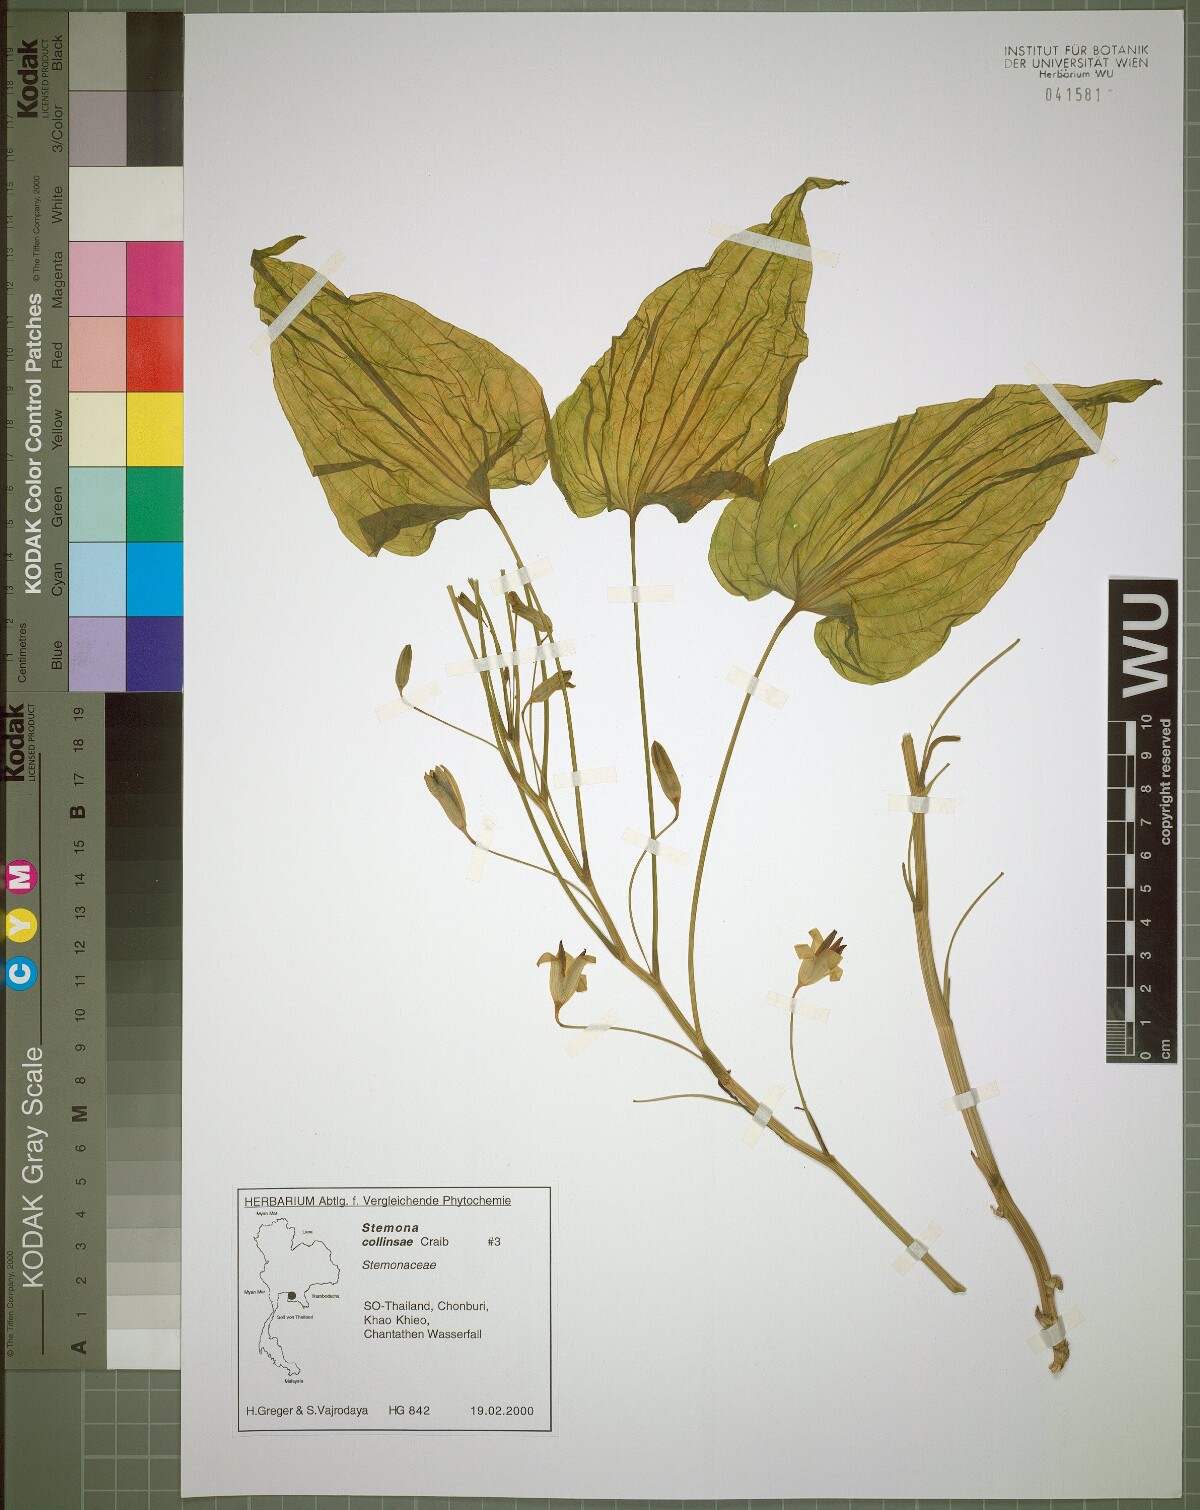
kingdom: Plantae
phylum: Tracheophyta
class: Liliopsida
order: Pandanales
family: Stemonaceae
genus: Stemona
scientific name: Stemona collinsiae
